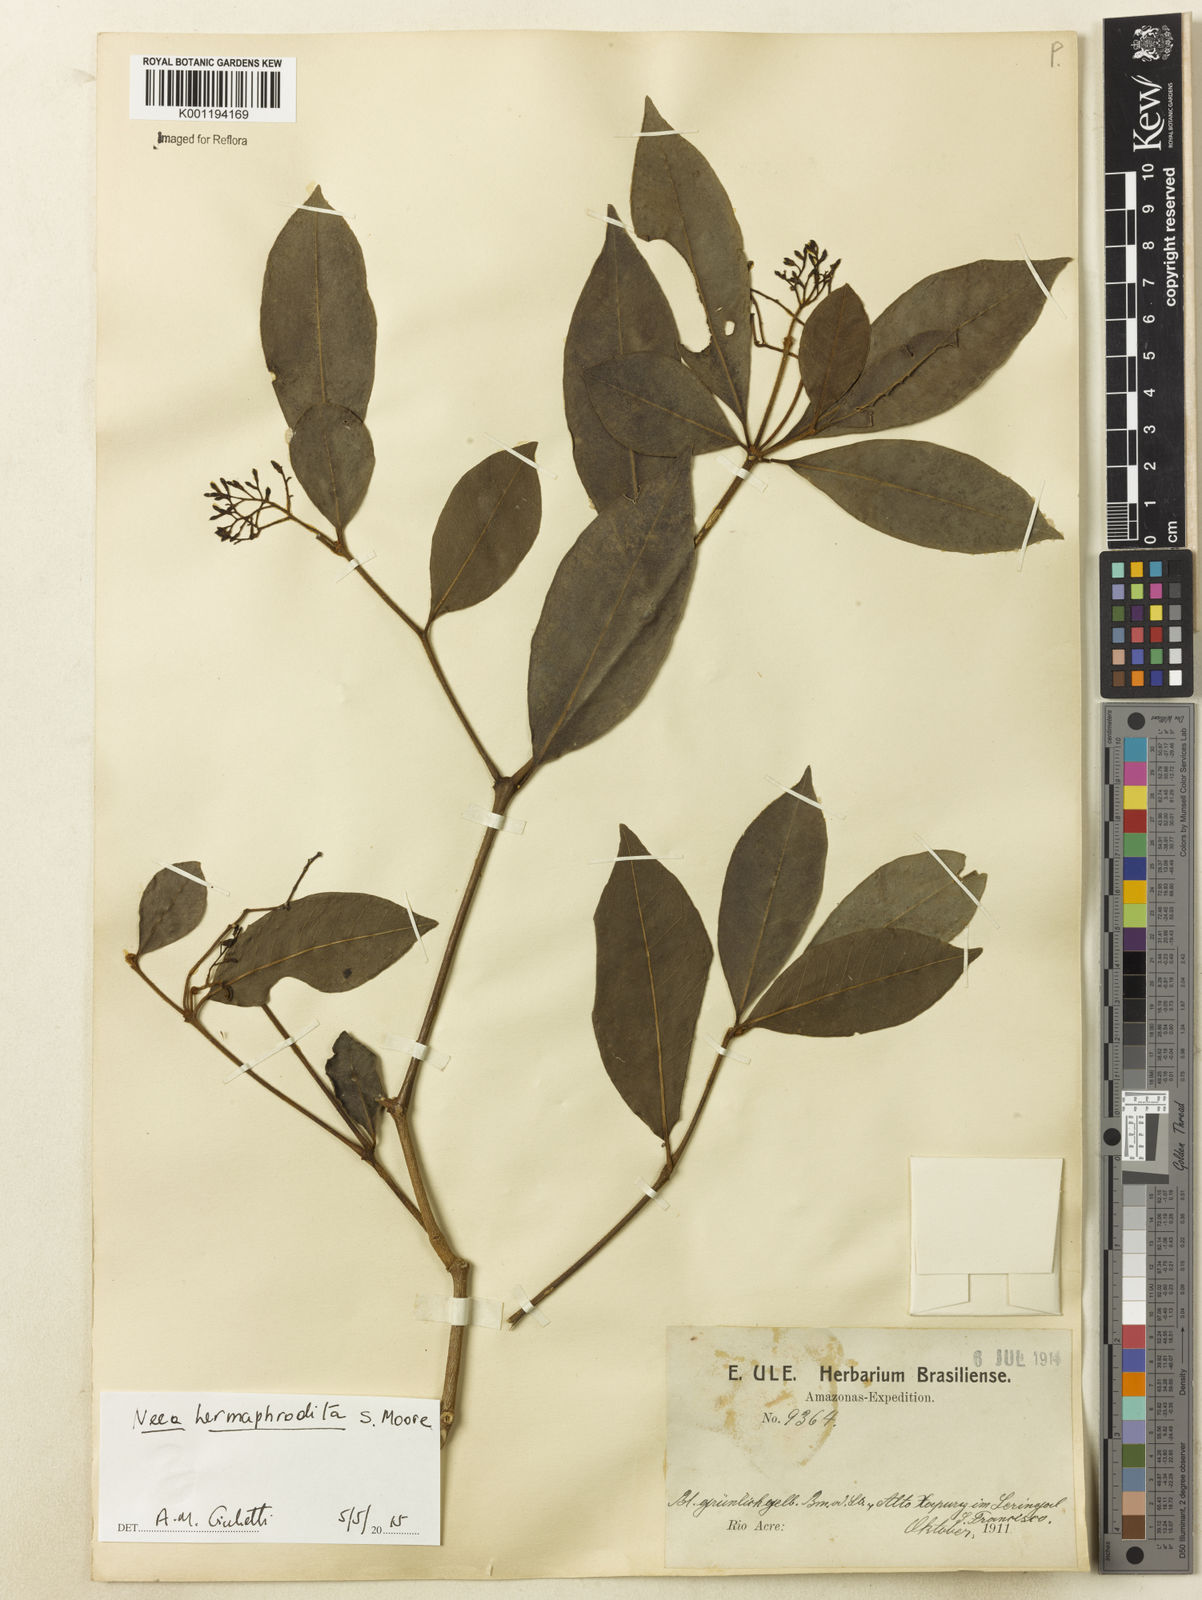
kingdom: Plantae
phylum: Tracheophyta
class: Magnoliopsida
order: Caryophyllales
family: Nyctaginaceae
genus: Neea
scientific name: Neea hermaphrodita
